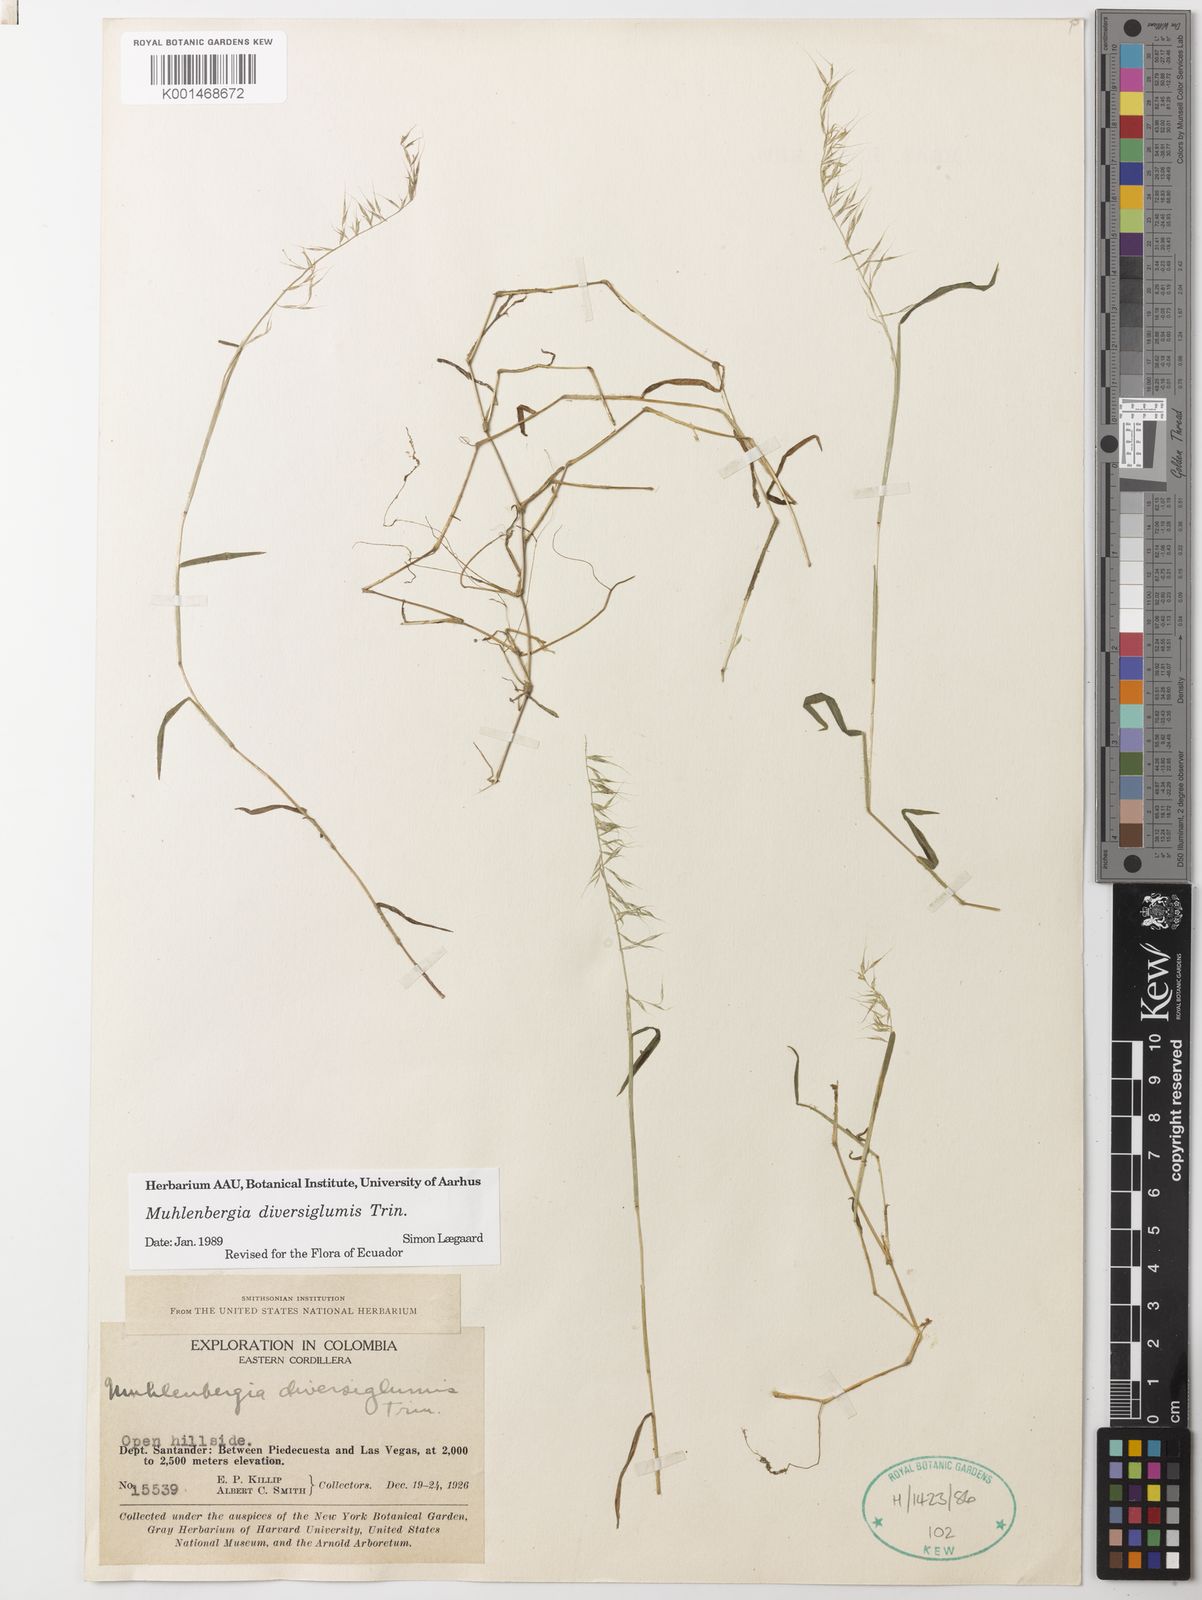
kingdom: Plantae
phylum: Tracheophyta
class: Liliopsida
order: Poales
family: Poaceae
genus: Muhlenbergia
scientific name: Muhlenbergia diversiglumis
